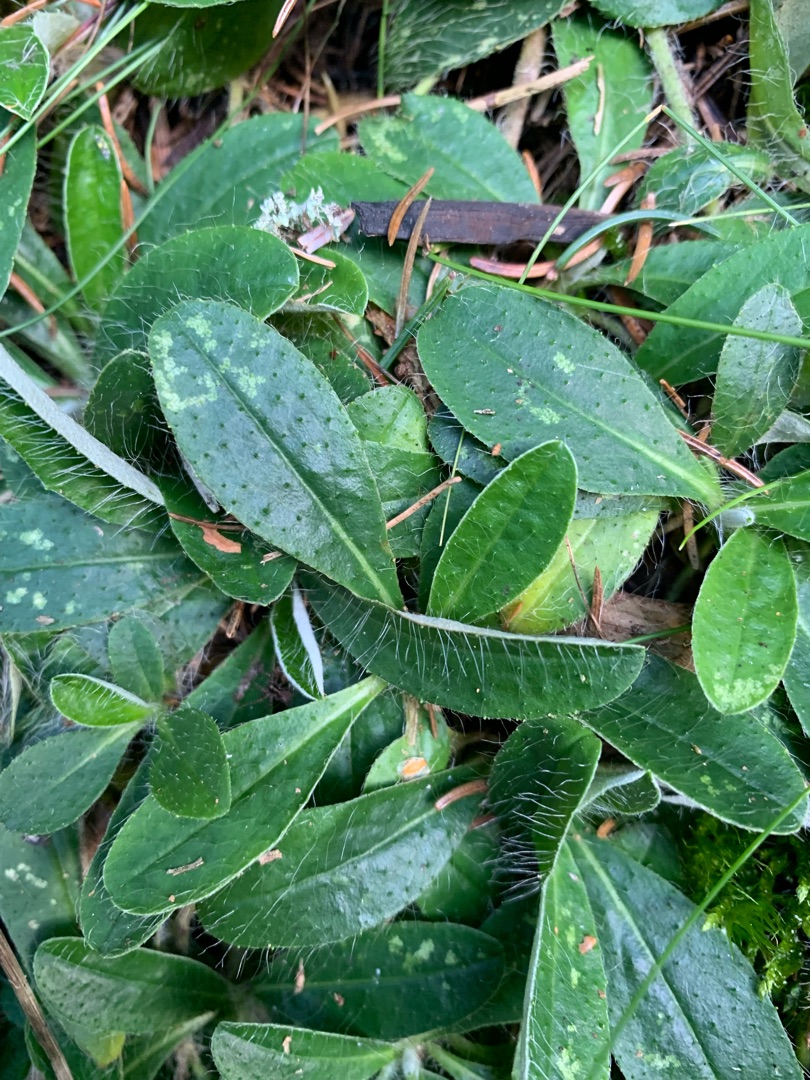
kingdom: Plantae
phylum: Tracheophyta
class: Magnoliopsida
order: Asterales
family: Asteraceae
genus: Pilosella
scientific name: Pilosella officinarum
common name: Håret høgeurt
